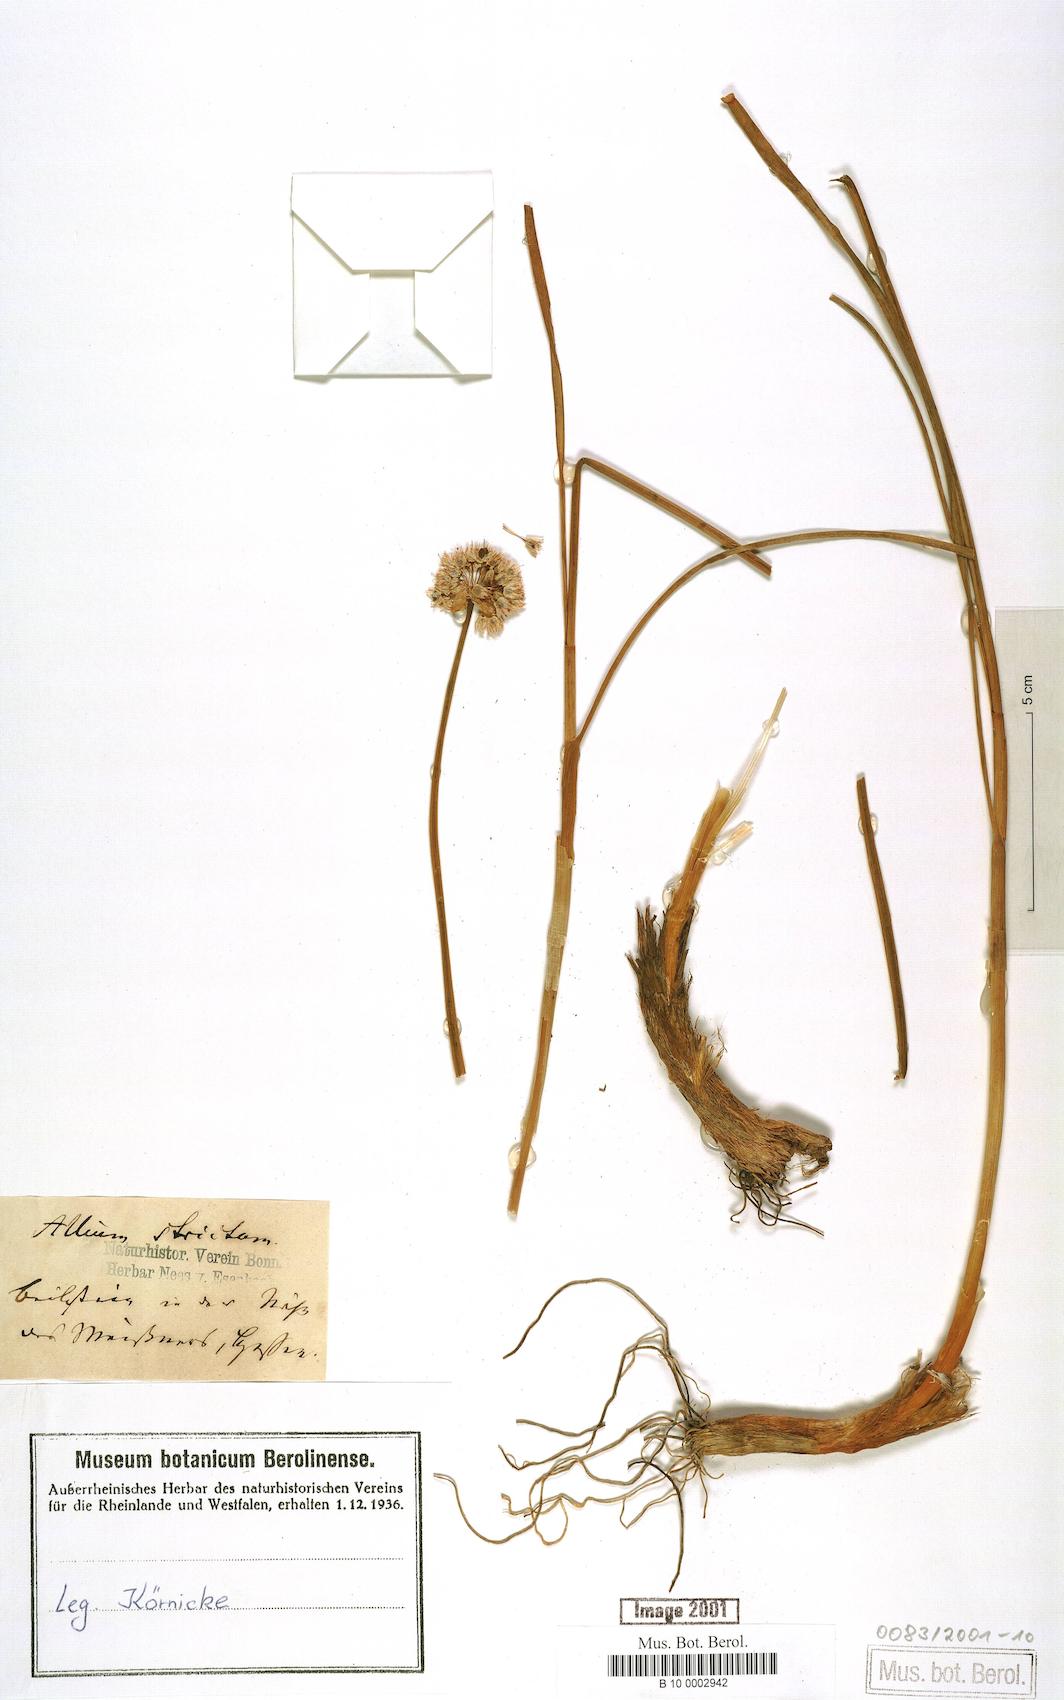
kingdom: Plantae
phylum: Tracheophyta
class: Liliopsida
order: Asparagales
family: Amaryllidaceae
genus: Allium
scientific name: Allium strictum
